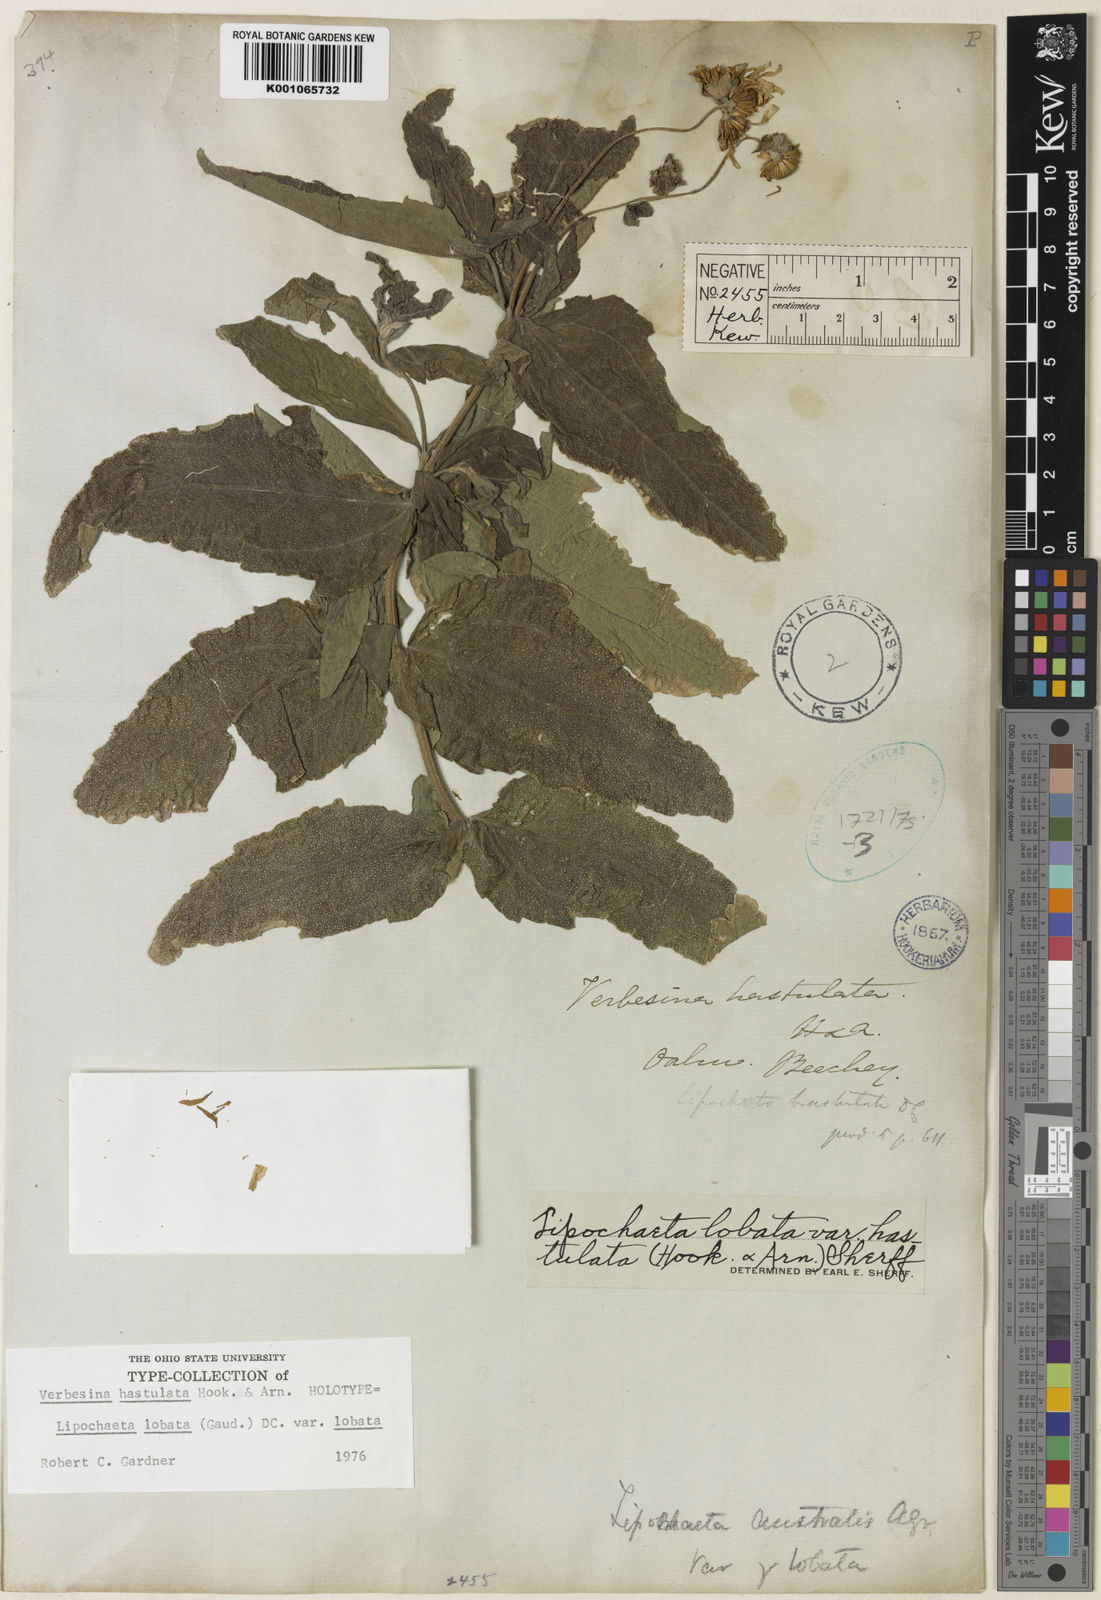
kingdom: Plantae
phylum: Tracheophyta
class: Magnoliopsida
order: Asterales
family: Asteraceae
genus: Lipochaeta
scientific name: Lipochaeta lobata
